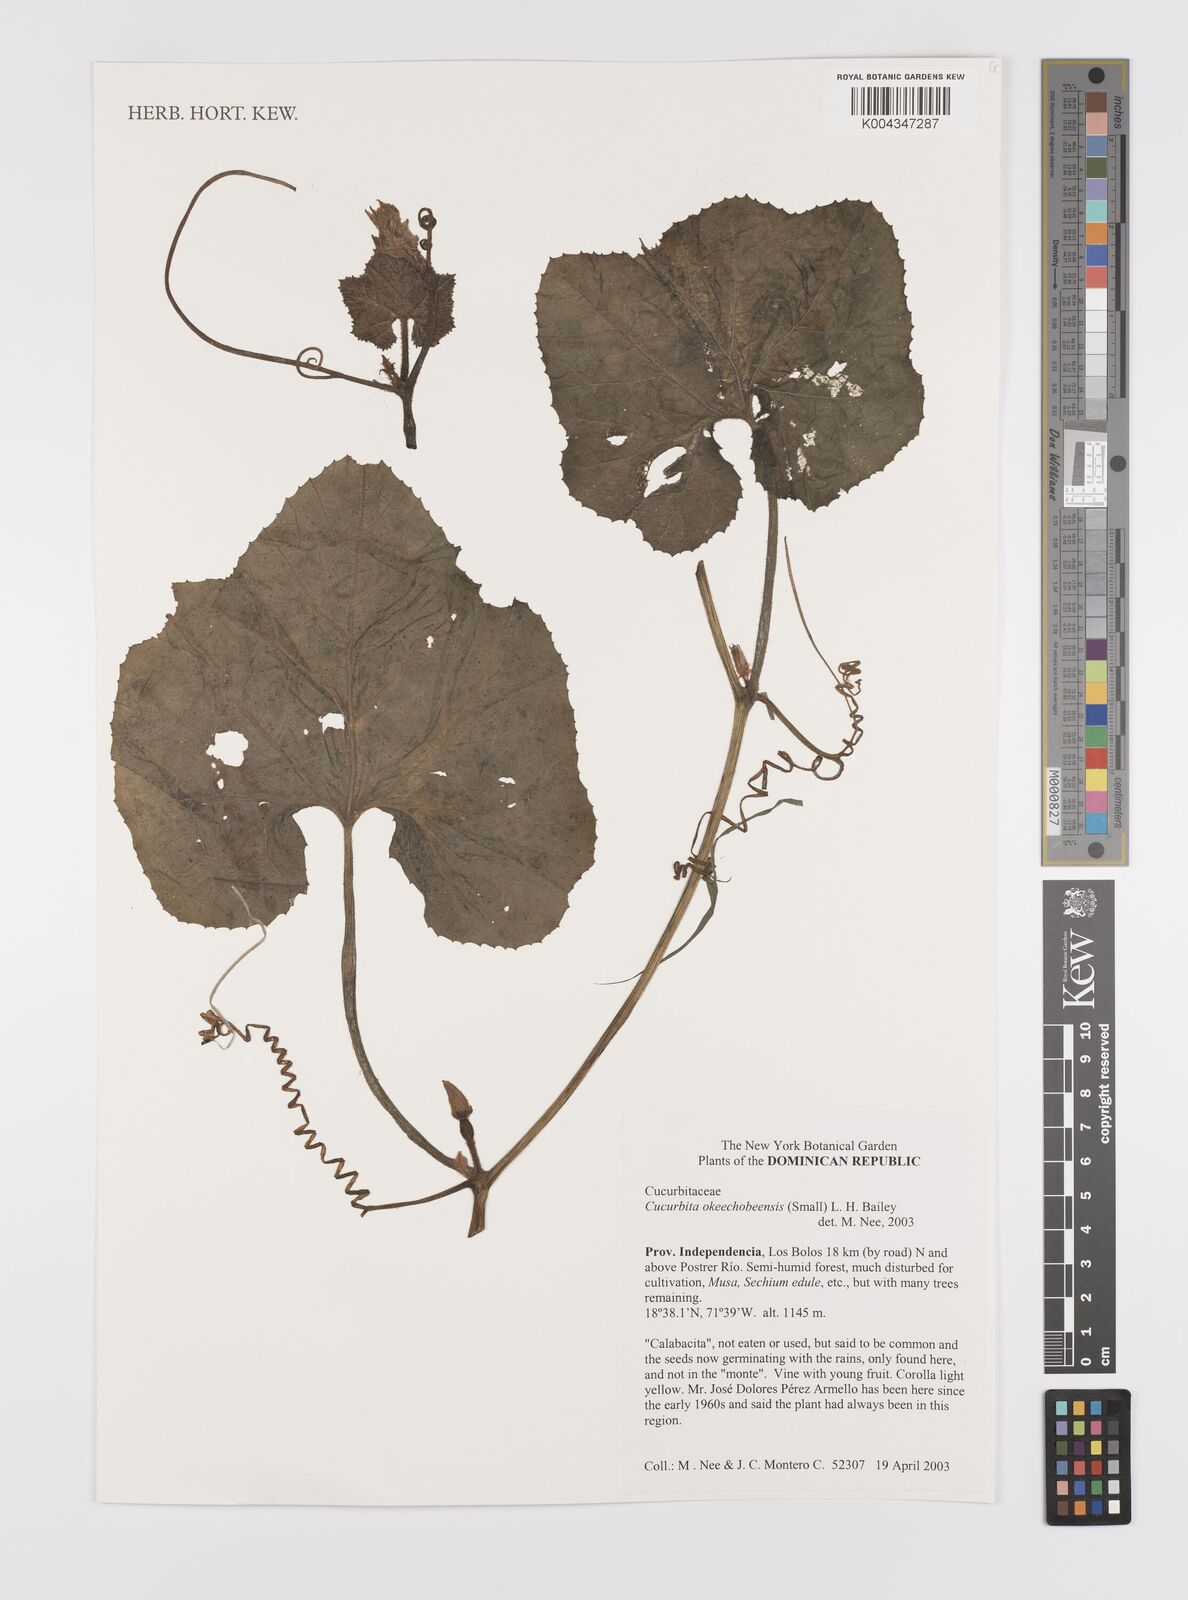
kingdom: Plantae
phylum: Tracheophyta
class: Magnoliopsida
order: Cucurbitales
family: Cucurbitaceae
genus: Cucurbita
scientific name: Cucurbita okeechobeensis
